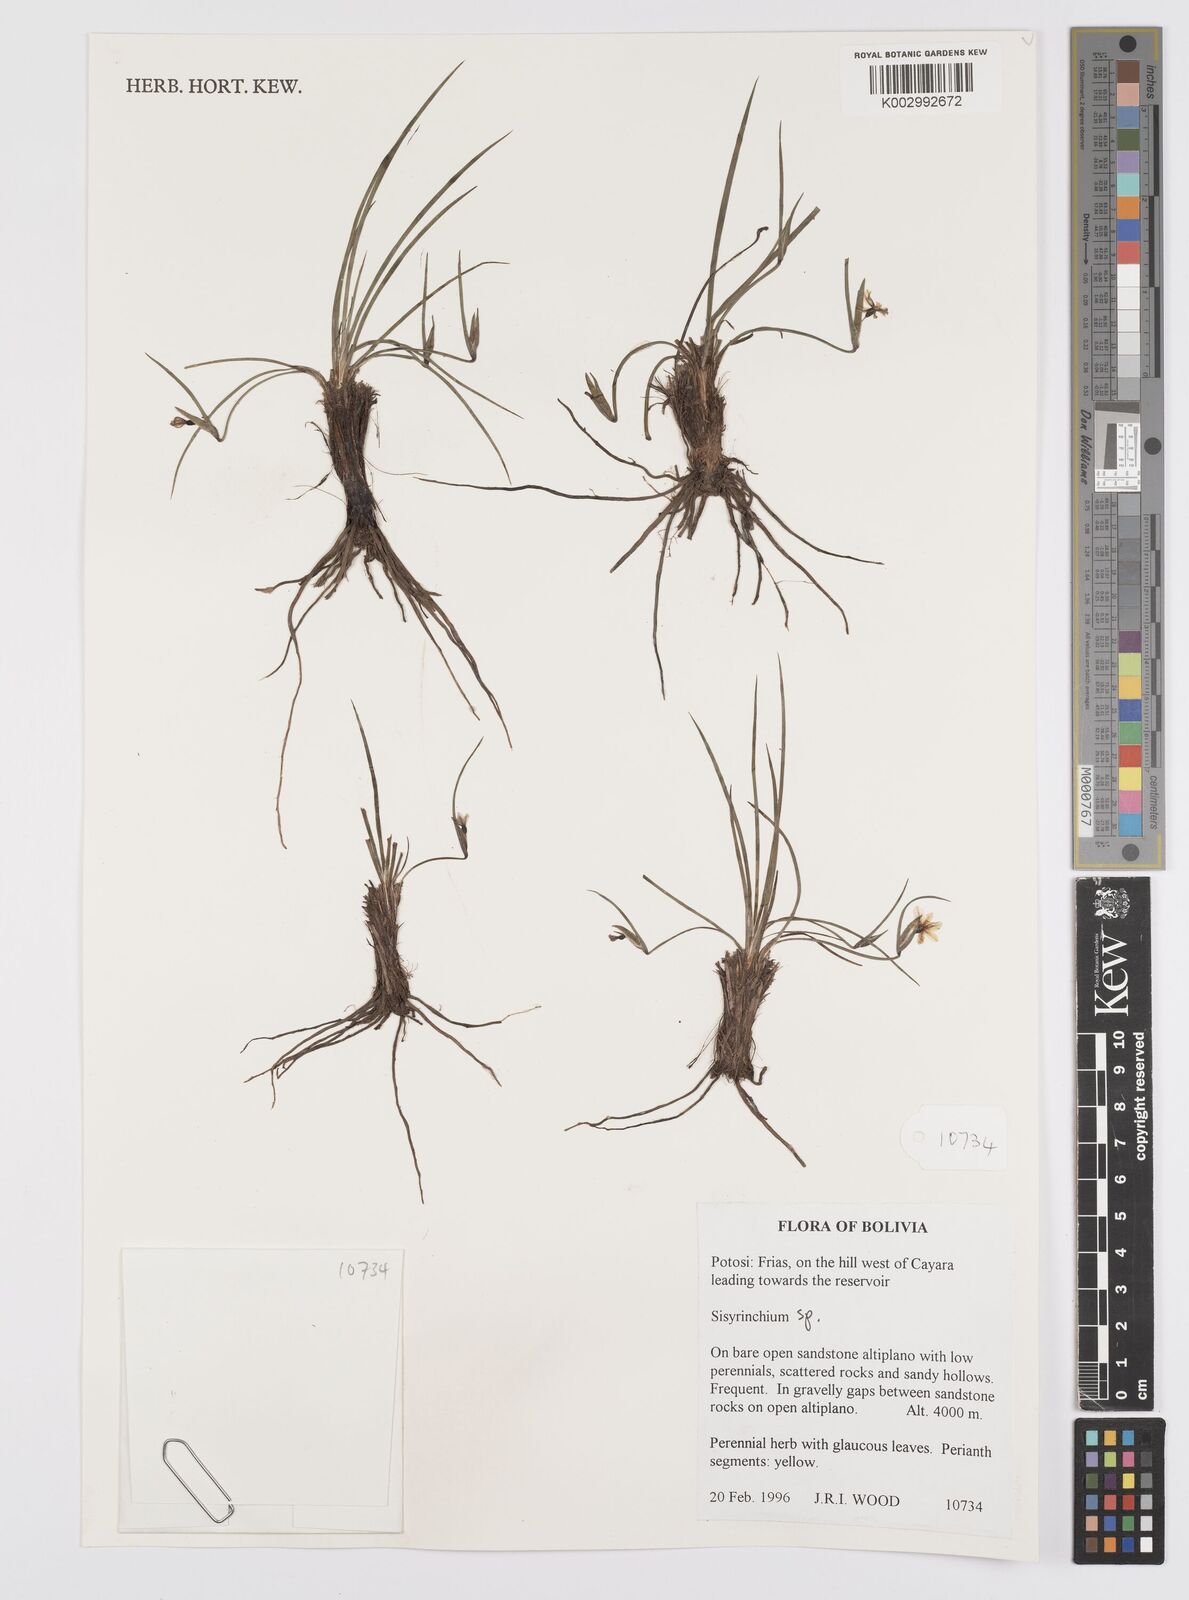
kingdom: Plantae
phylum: Tracheophyta
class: Liliopsida
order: Asparagales
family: Iridaceae
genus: Sisyrinchium
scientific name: Sisyrinchium
